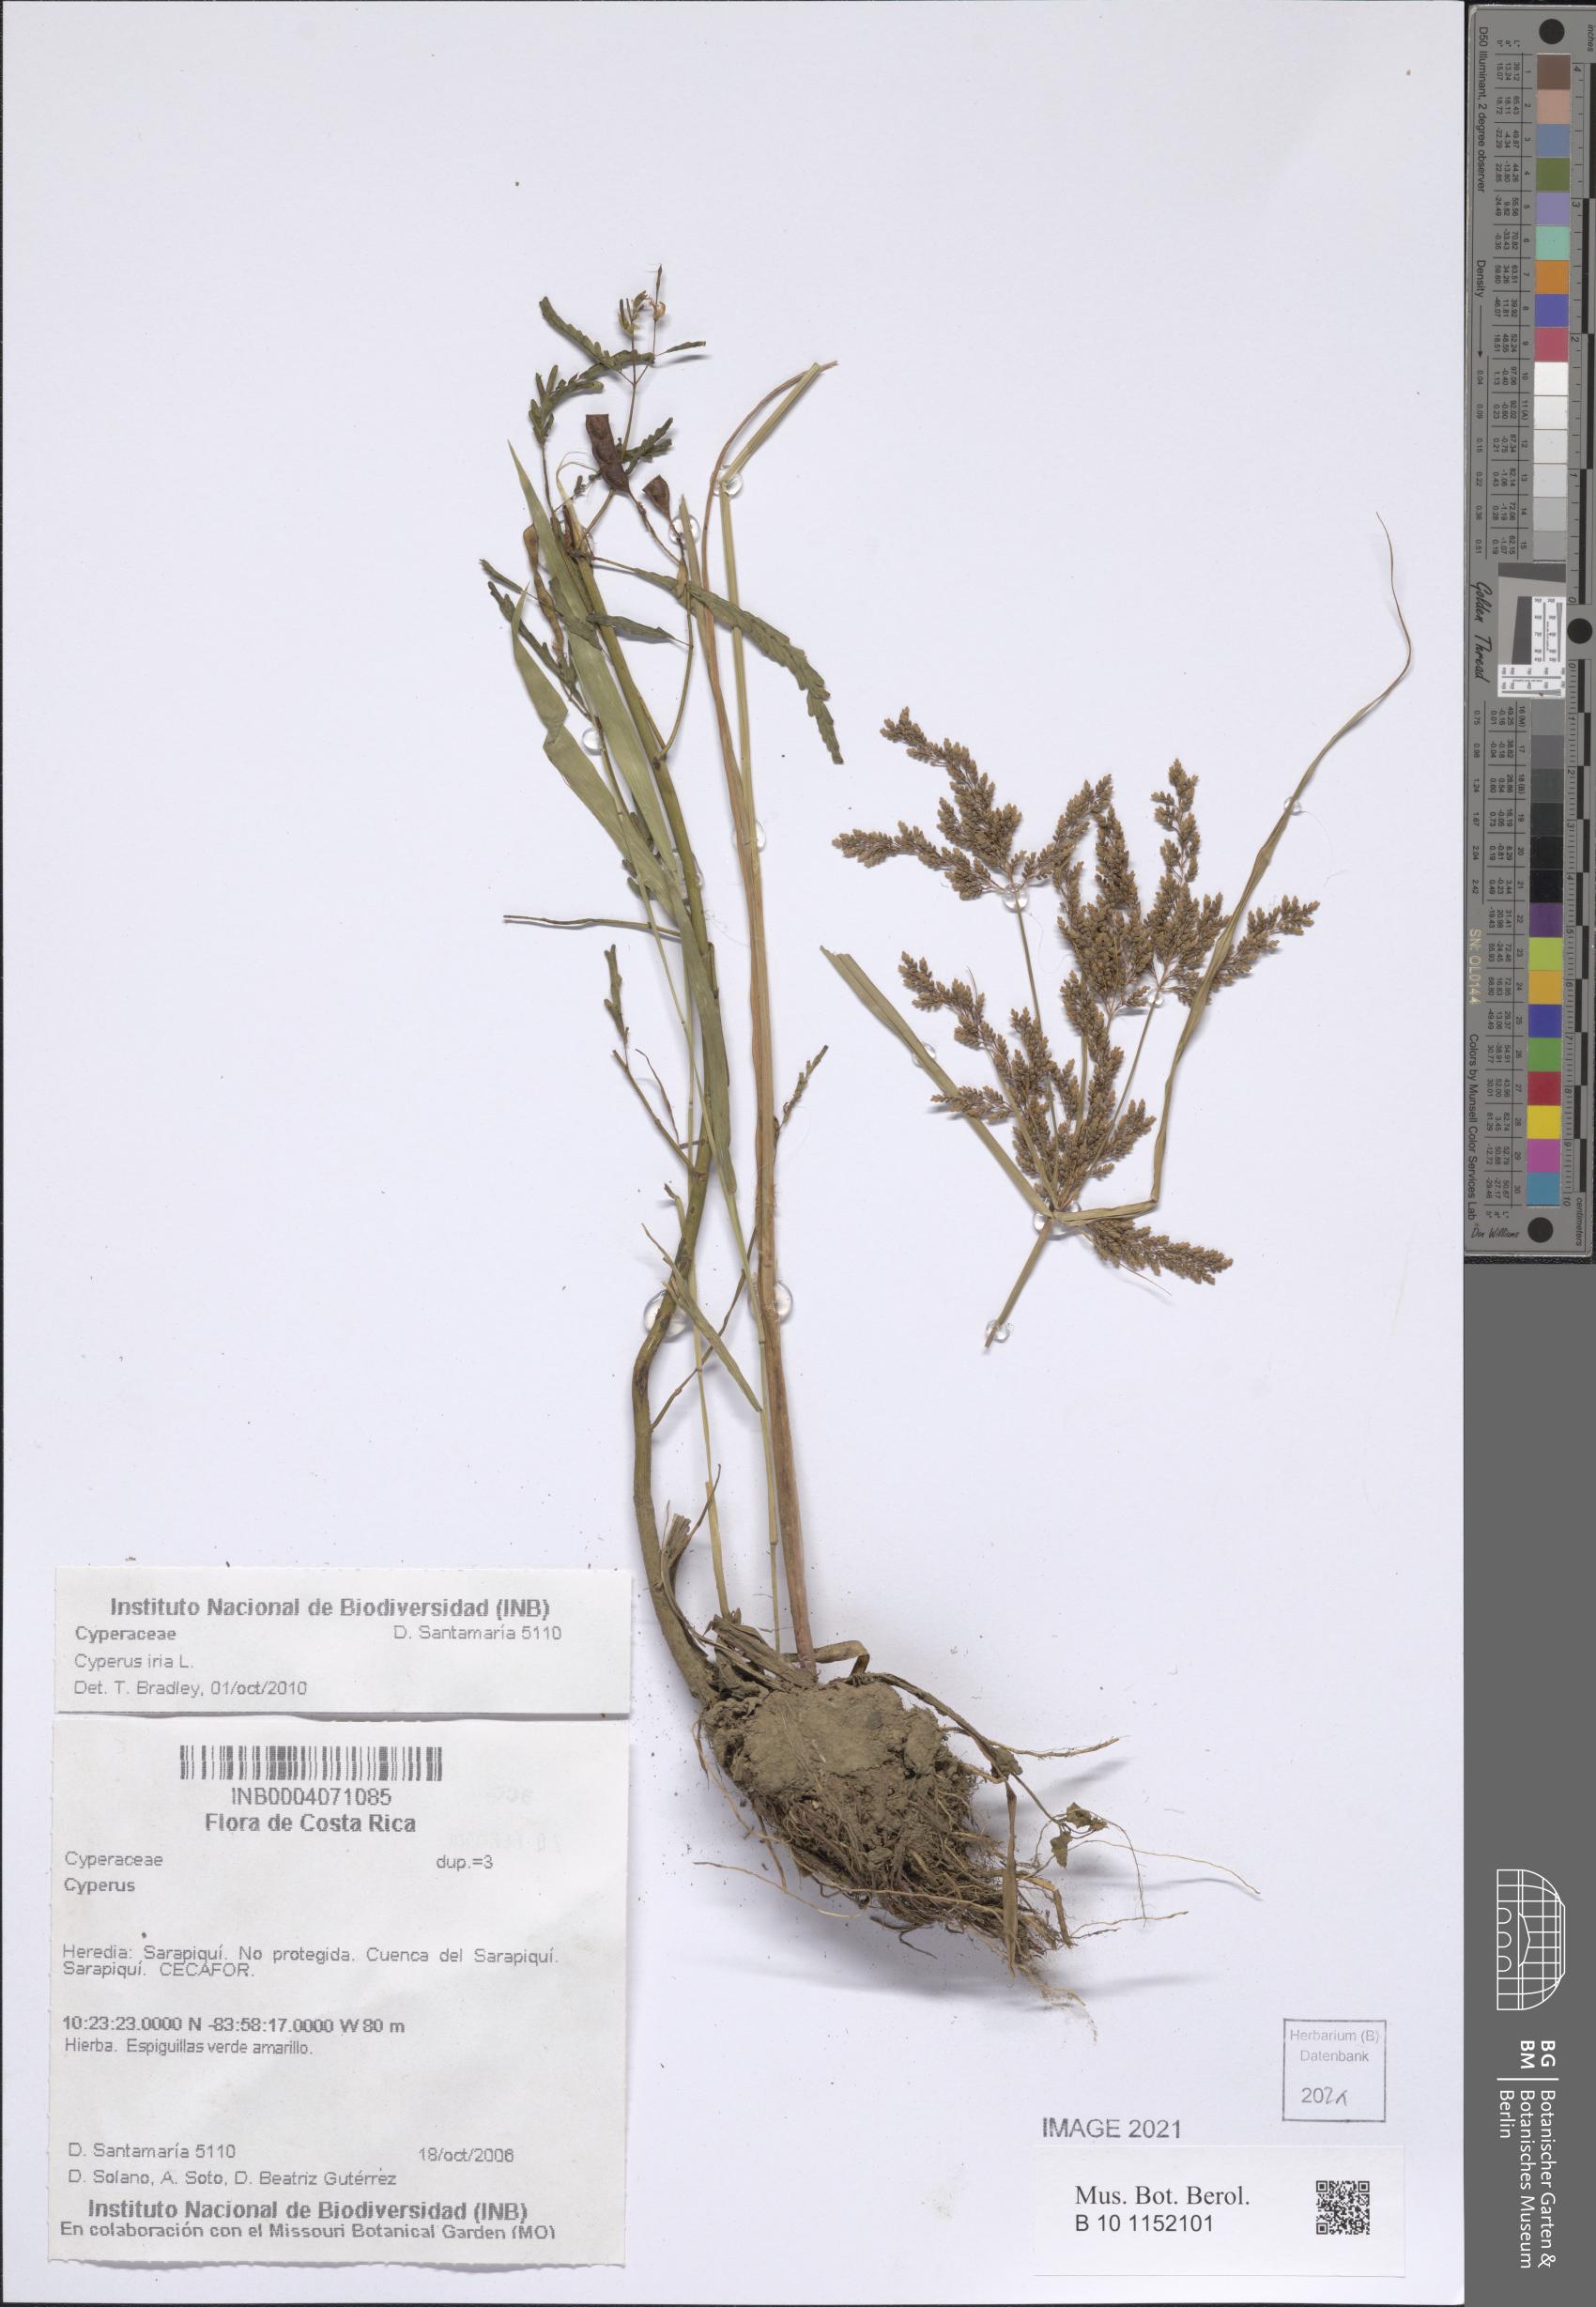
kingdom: Plantae
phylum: Tracheophyta
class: Liliopsida
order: Poales
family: Cyperaceae
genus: Cyperus
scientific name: Cyperus iria
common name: Ricefield flatsedge
